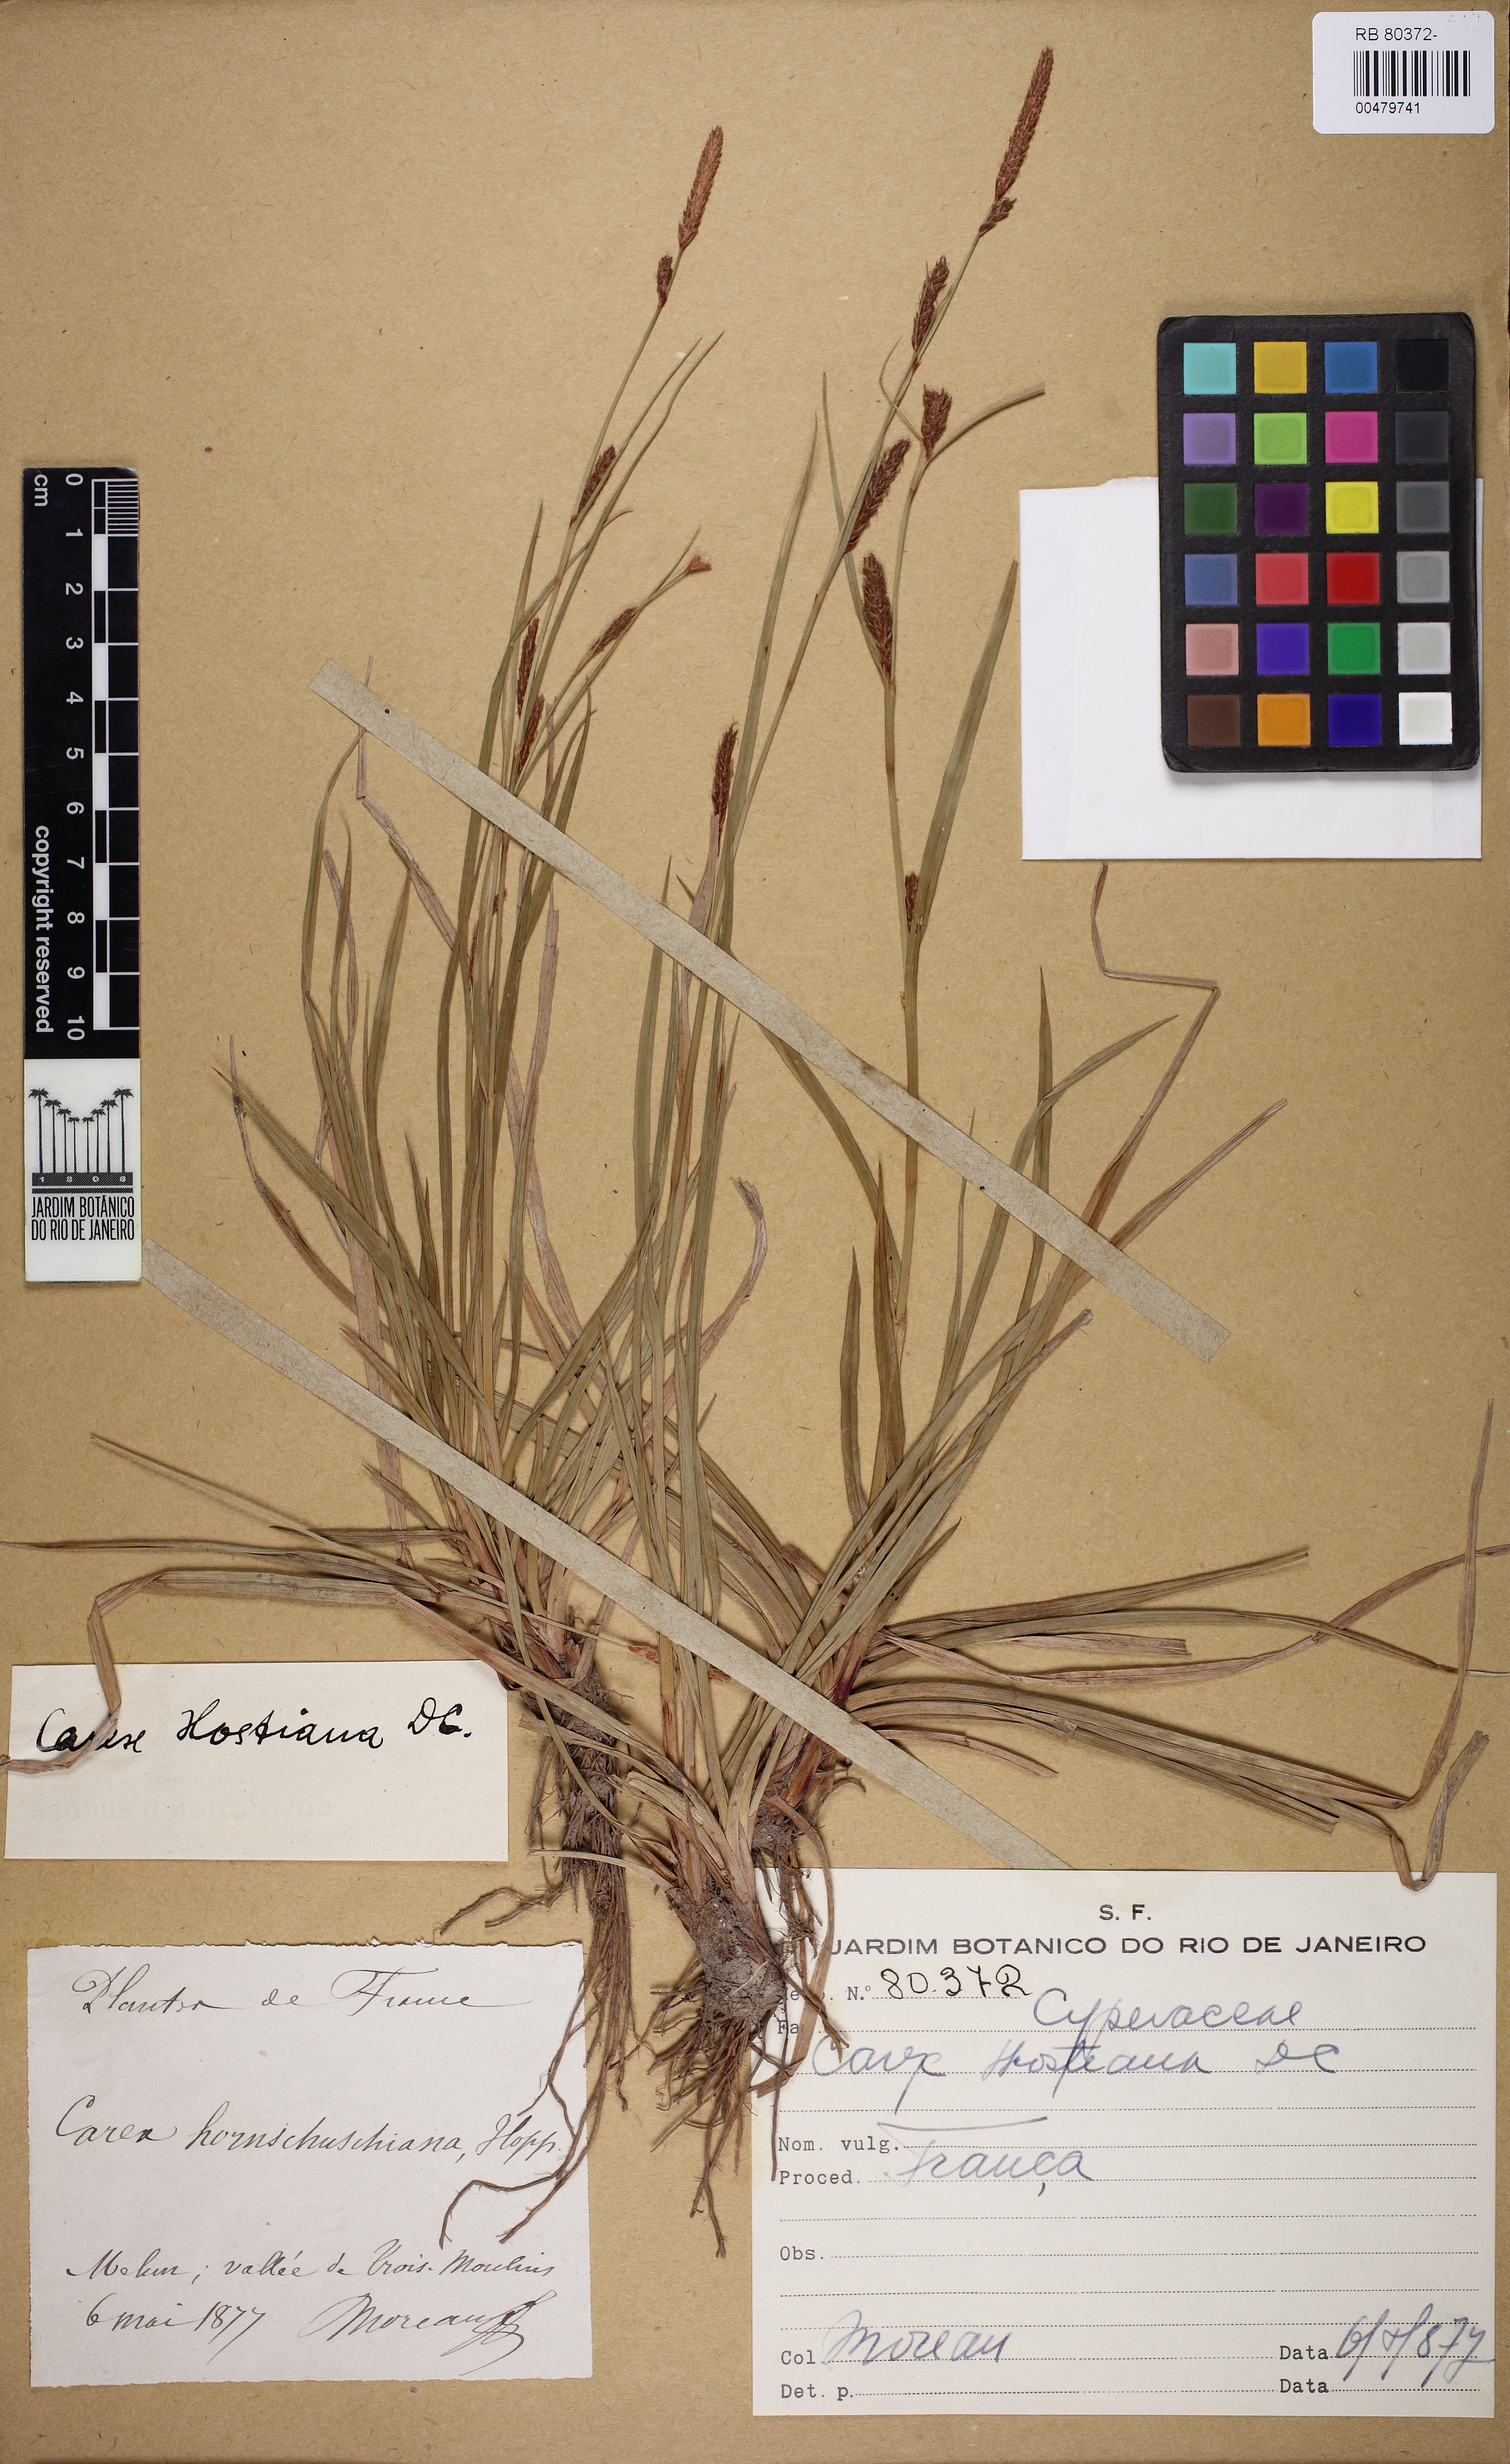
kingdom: Plantae
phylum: Tracheophyta
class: Liliopsida
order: Poales
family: Cyperaceae
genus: Carex
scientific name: Carex hostiana
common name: Tawny sedge
